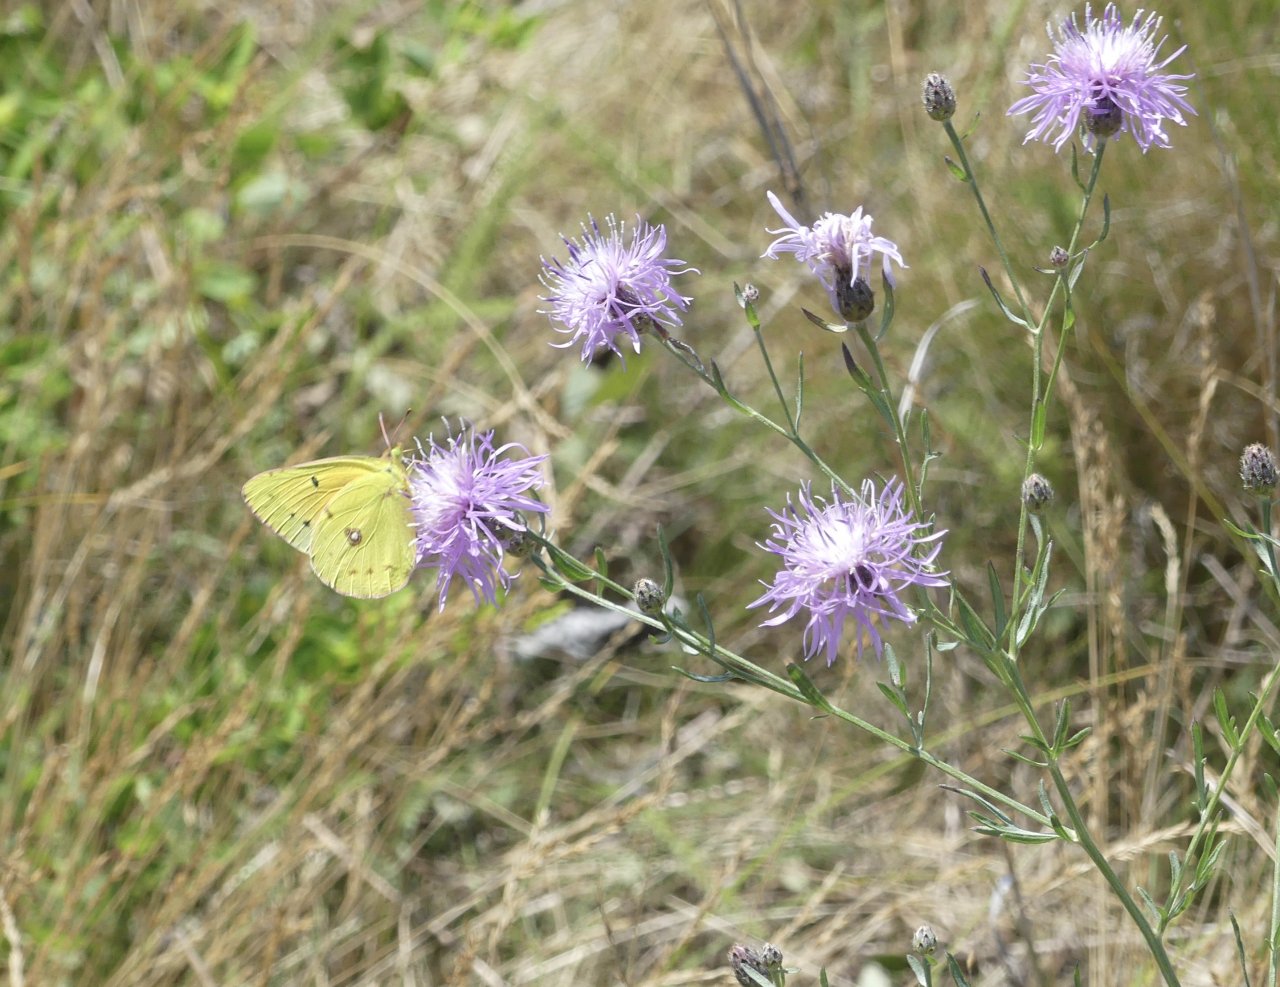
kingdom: Animalia
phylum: Arthropoda
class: Insecta
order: Lepidoptera
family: Pieridae
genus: Colias
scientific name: Colias eurytheme
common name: Orange Sulphur
